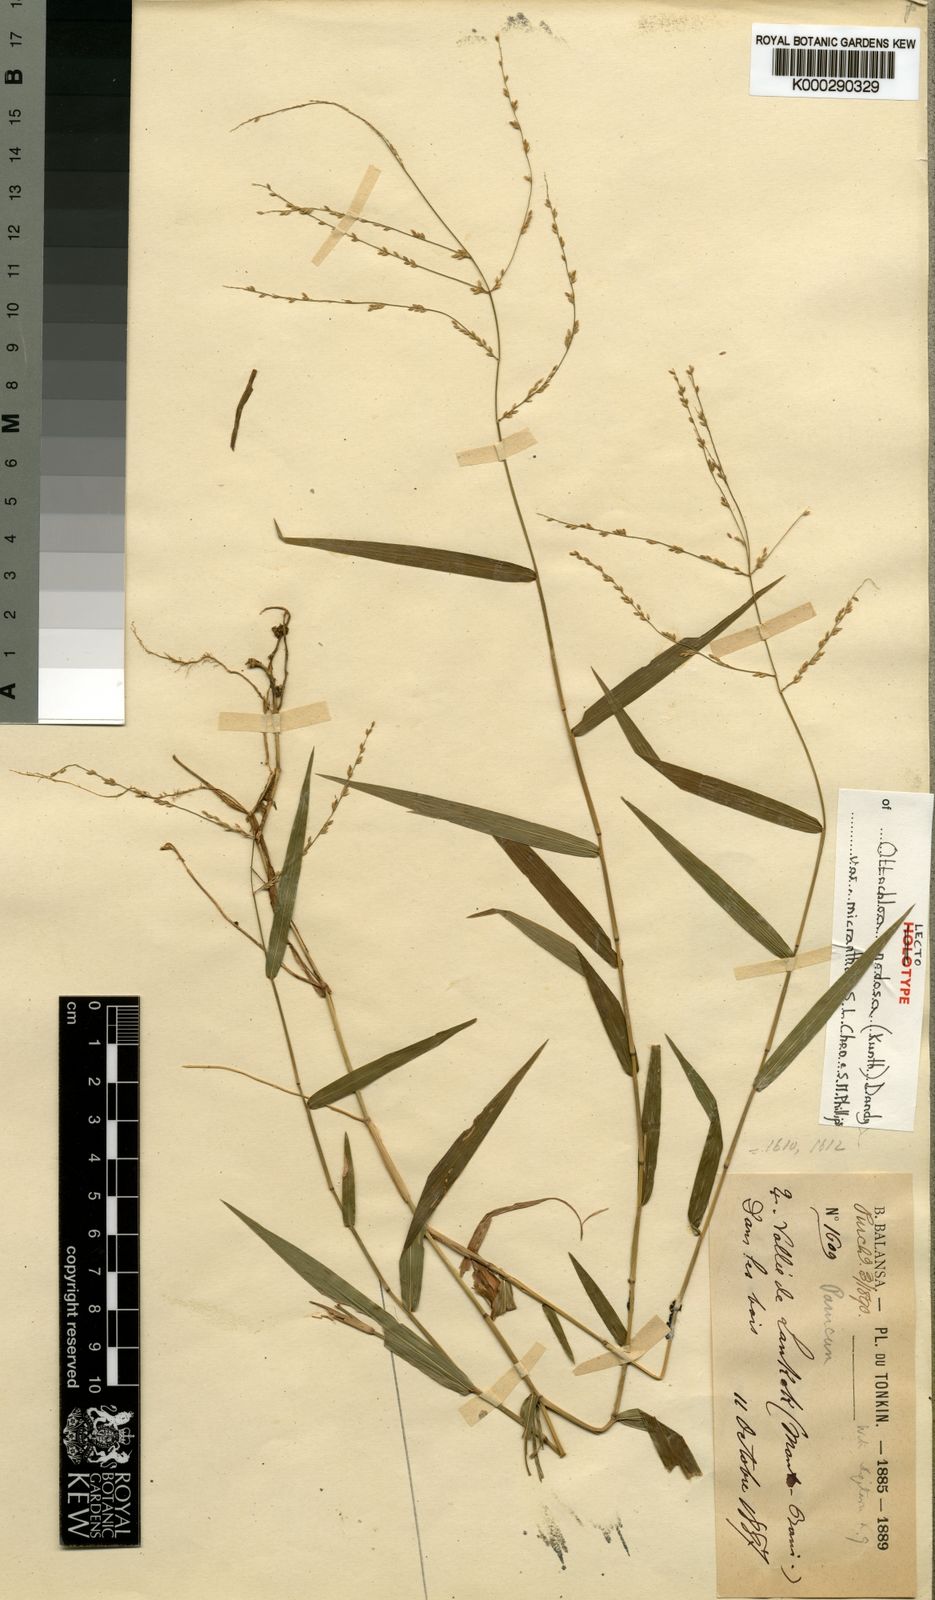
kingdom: Plantae
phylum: Tracheophyta
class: Liliopsida
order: Poales
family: Poaceae
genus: Ottochloa
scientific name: Ottochloa nodosa
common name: Slender-panic grass
